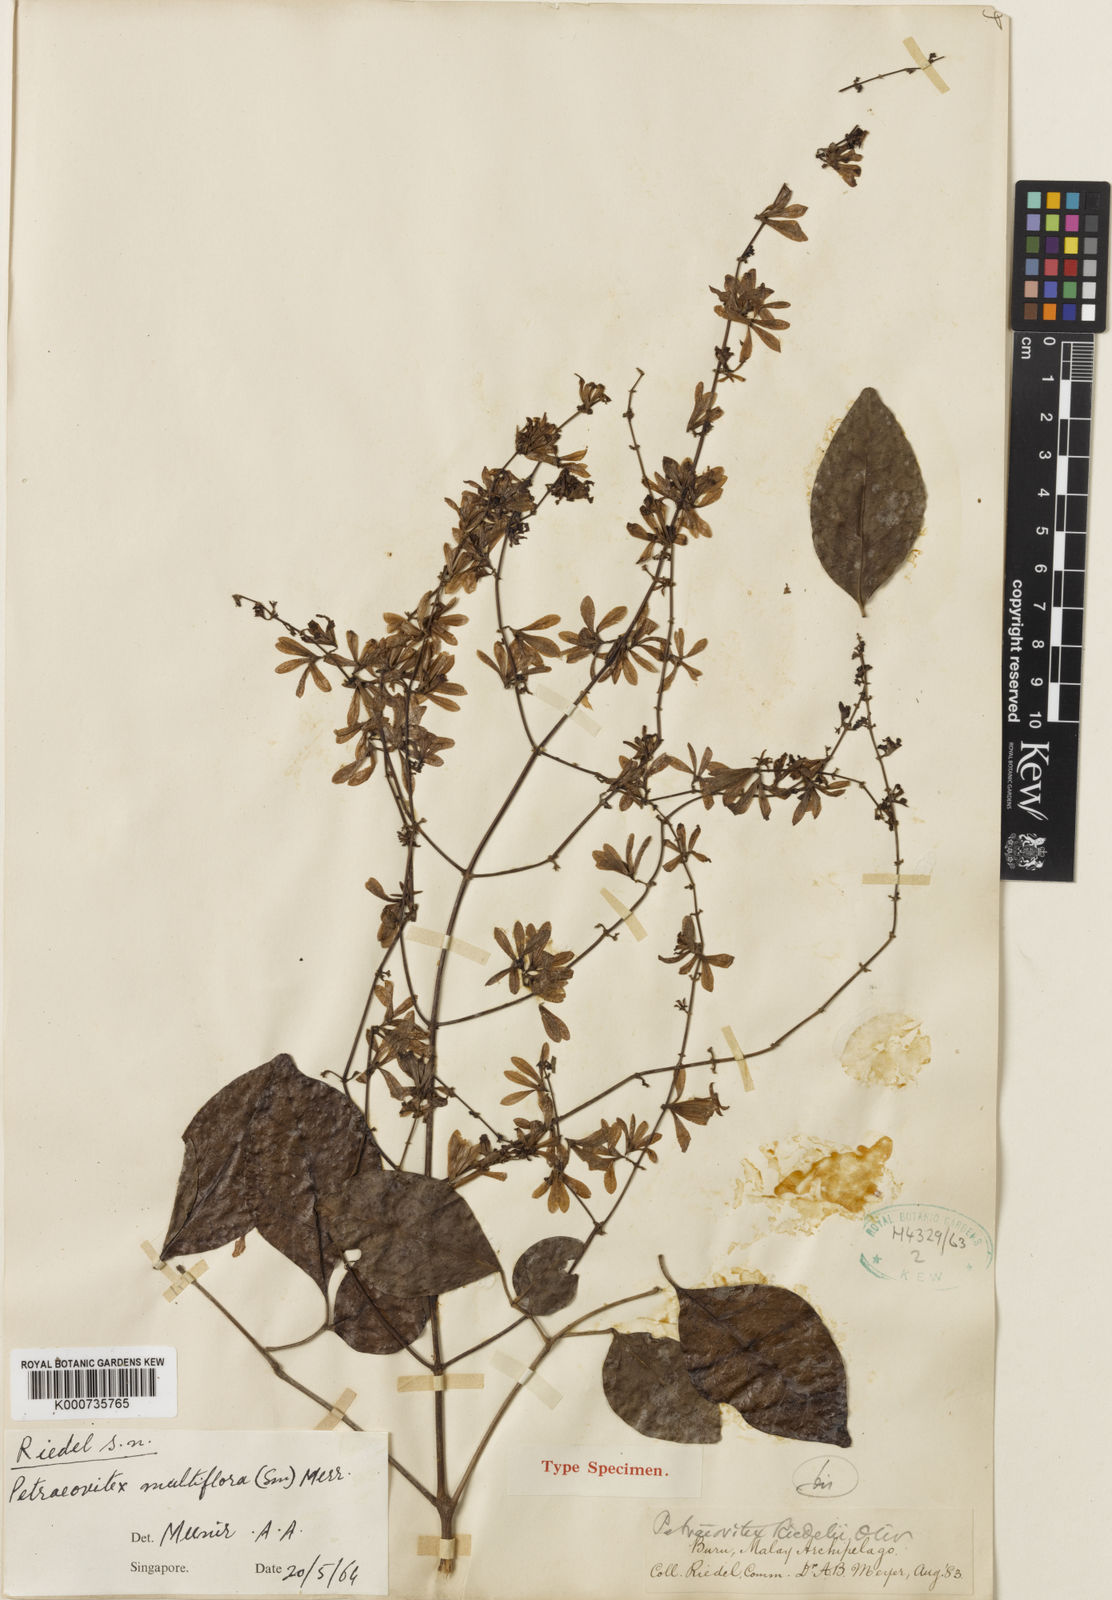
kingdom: Plantae
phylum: Tracheophyta
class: Magnoliopsida
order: Lamiales
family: Lamiaceae
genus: Petraeovitex
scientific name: Petraeovitex multiflora
